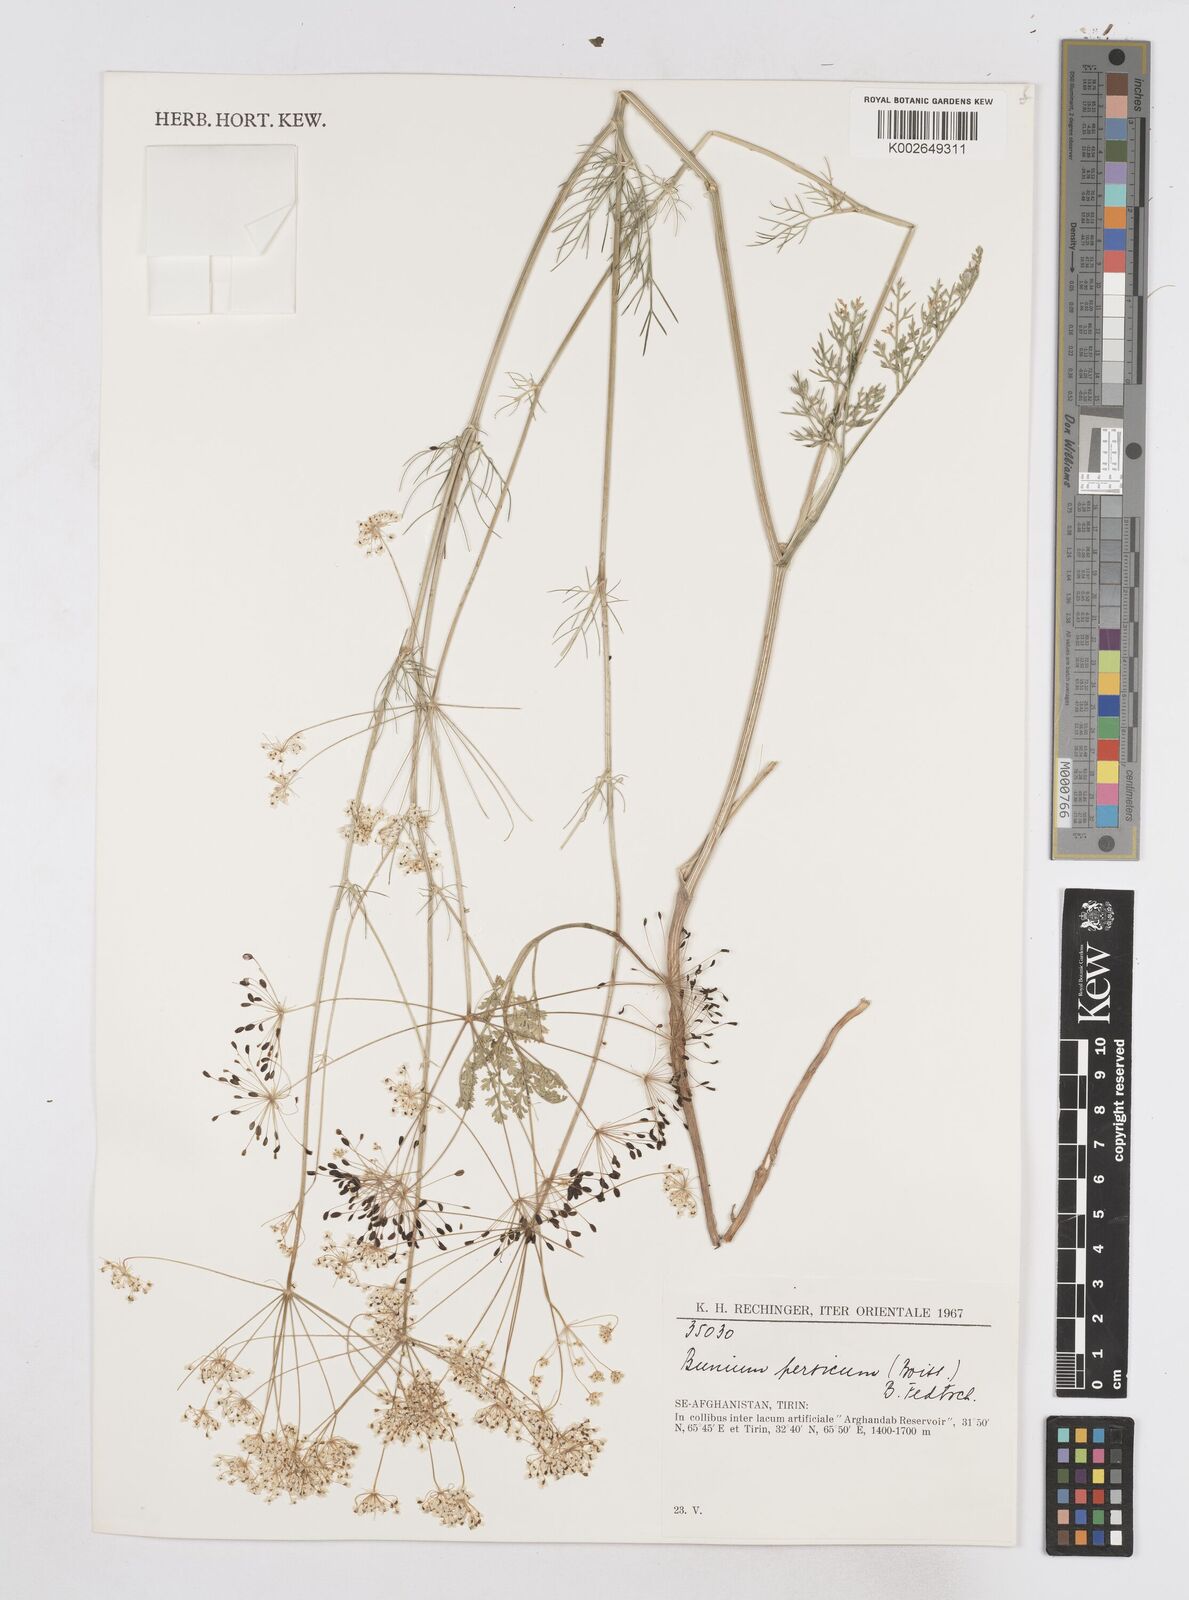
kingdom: Plantae
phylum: Tracheophyta
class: Magnoliopsida
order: Apiales
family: Apiaceae
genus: Elwendia
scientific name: Elwendia persica
